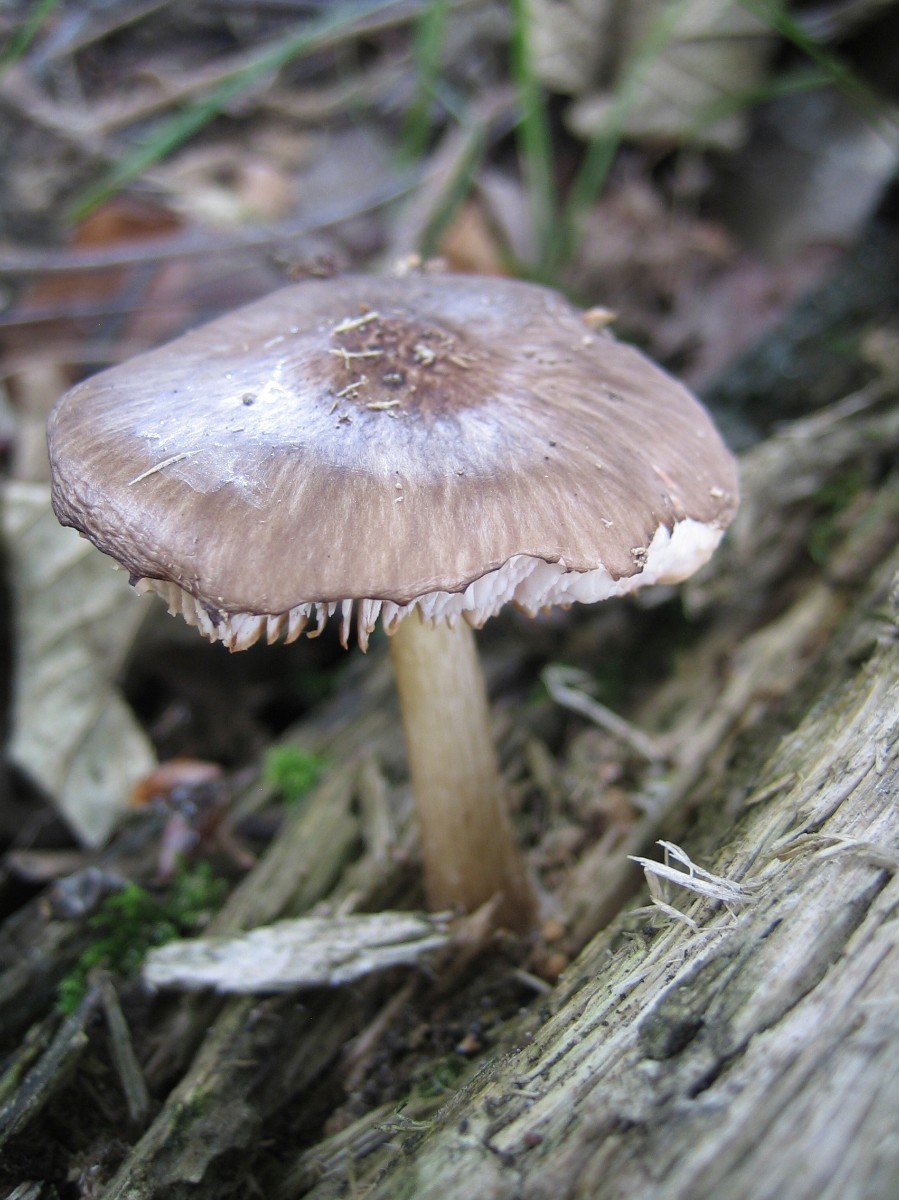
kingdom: Fungi
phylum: Basidiomycota
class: Agaricomycetes
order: Agaricales
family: Pluteaceae
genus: Pluteus
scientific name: Pluteus cervinus
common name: sodfarvet skærmhat
